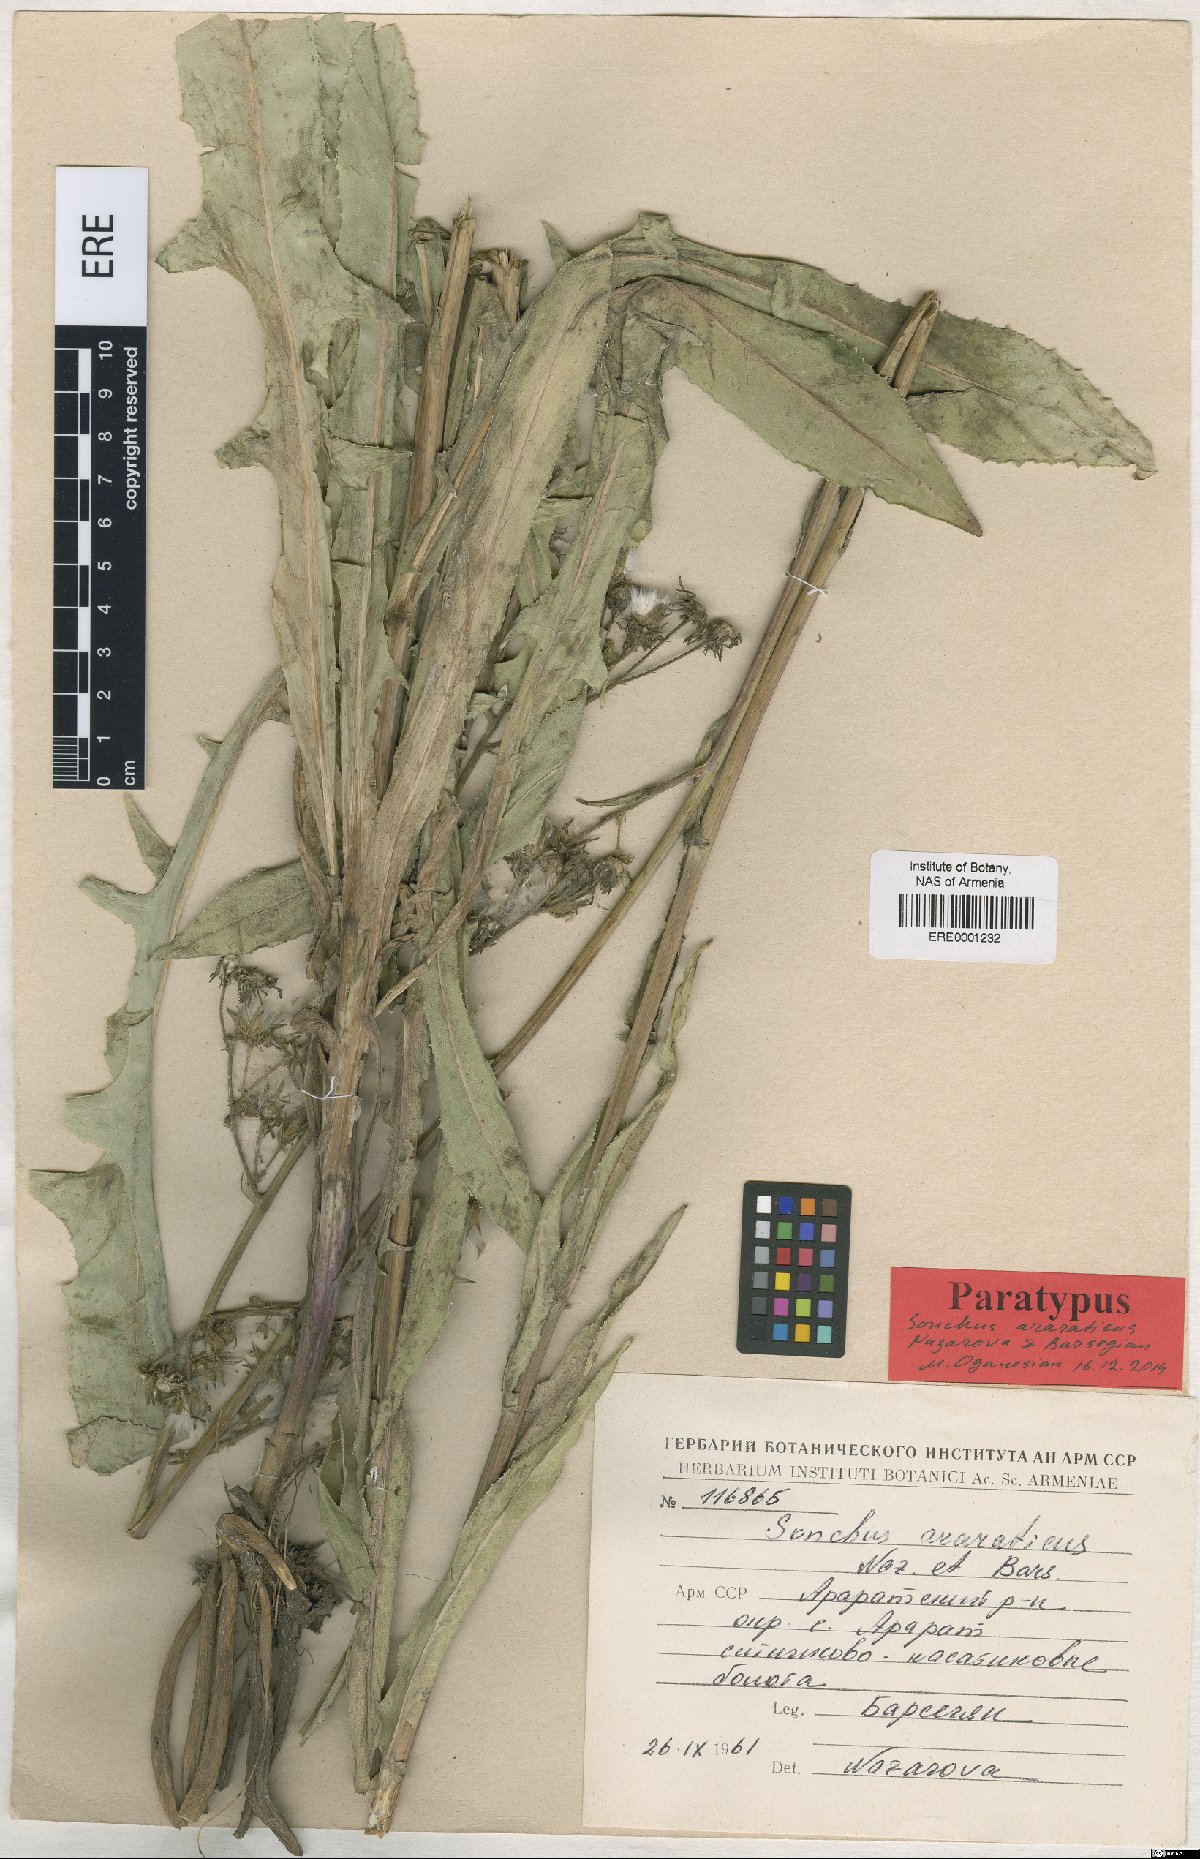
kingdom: Plantae
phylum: Tracheophyta
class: Magnoliopsida
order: Asterales
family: Asteraceae
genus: Sonchus
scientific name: Sonchus araraticus
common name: Araratian sow-thistle
